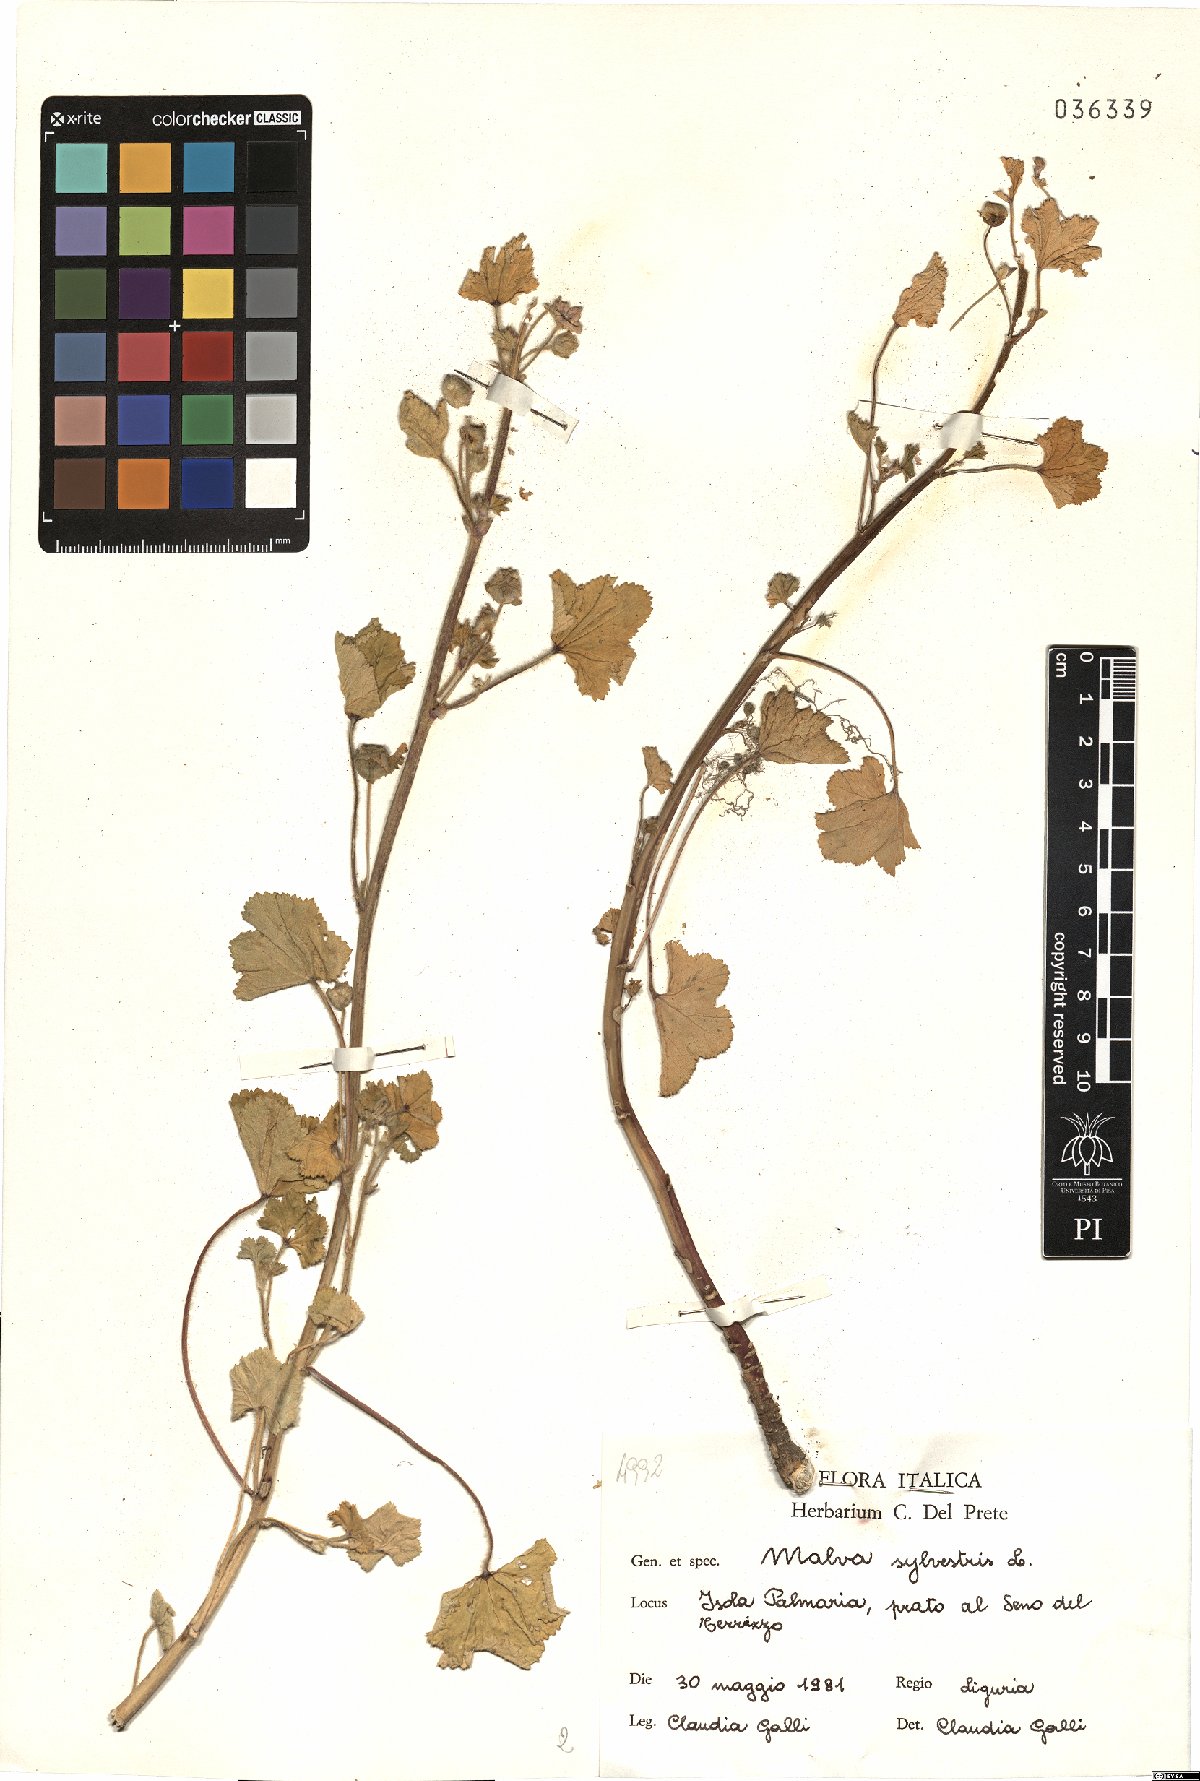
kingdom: Plantae
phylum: Tracheophyta
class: Magnoliopsida
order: Malvales
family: Malvaceae
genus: Malva
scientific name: Malva sylvestris
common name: Common mallow
